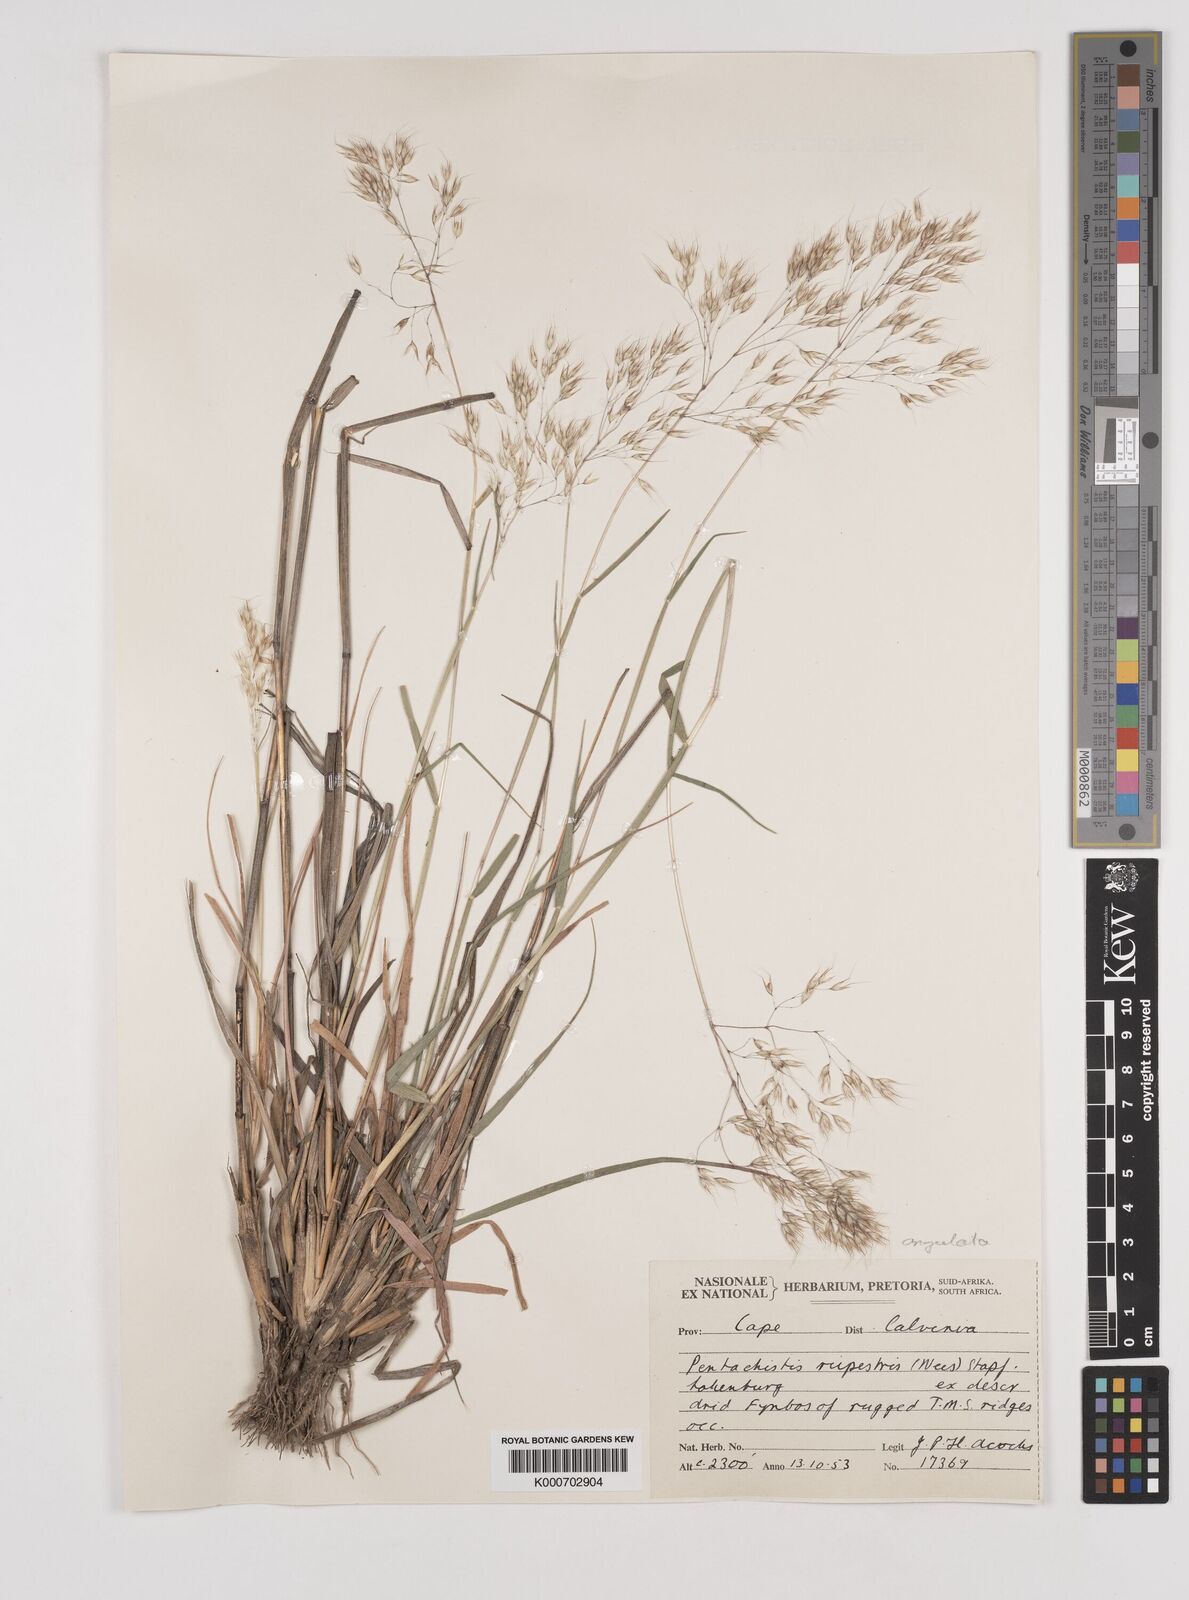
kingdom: Plantae
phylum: Tracheophyta
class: Liliopsida
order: Poales
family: Poaceae
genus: Pentameris
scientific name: Pentameris barbata
